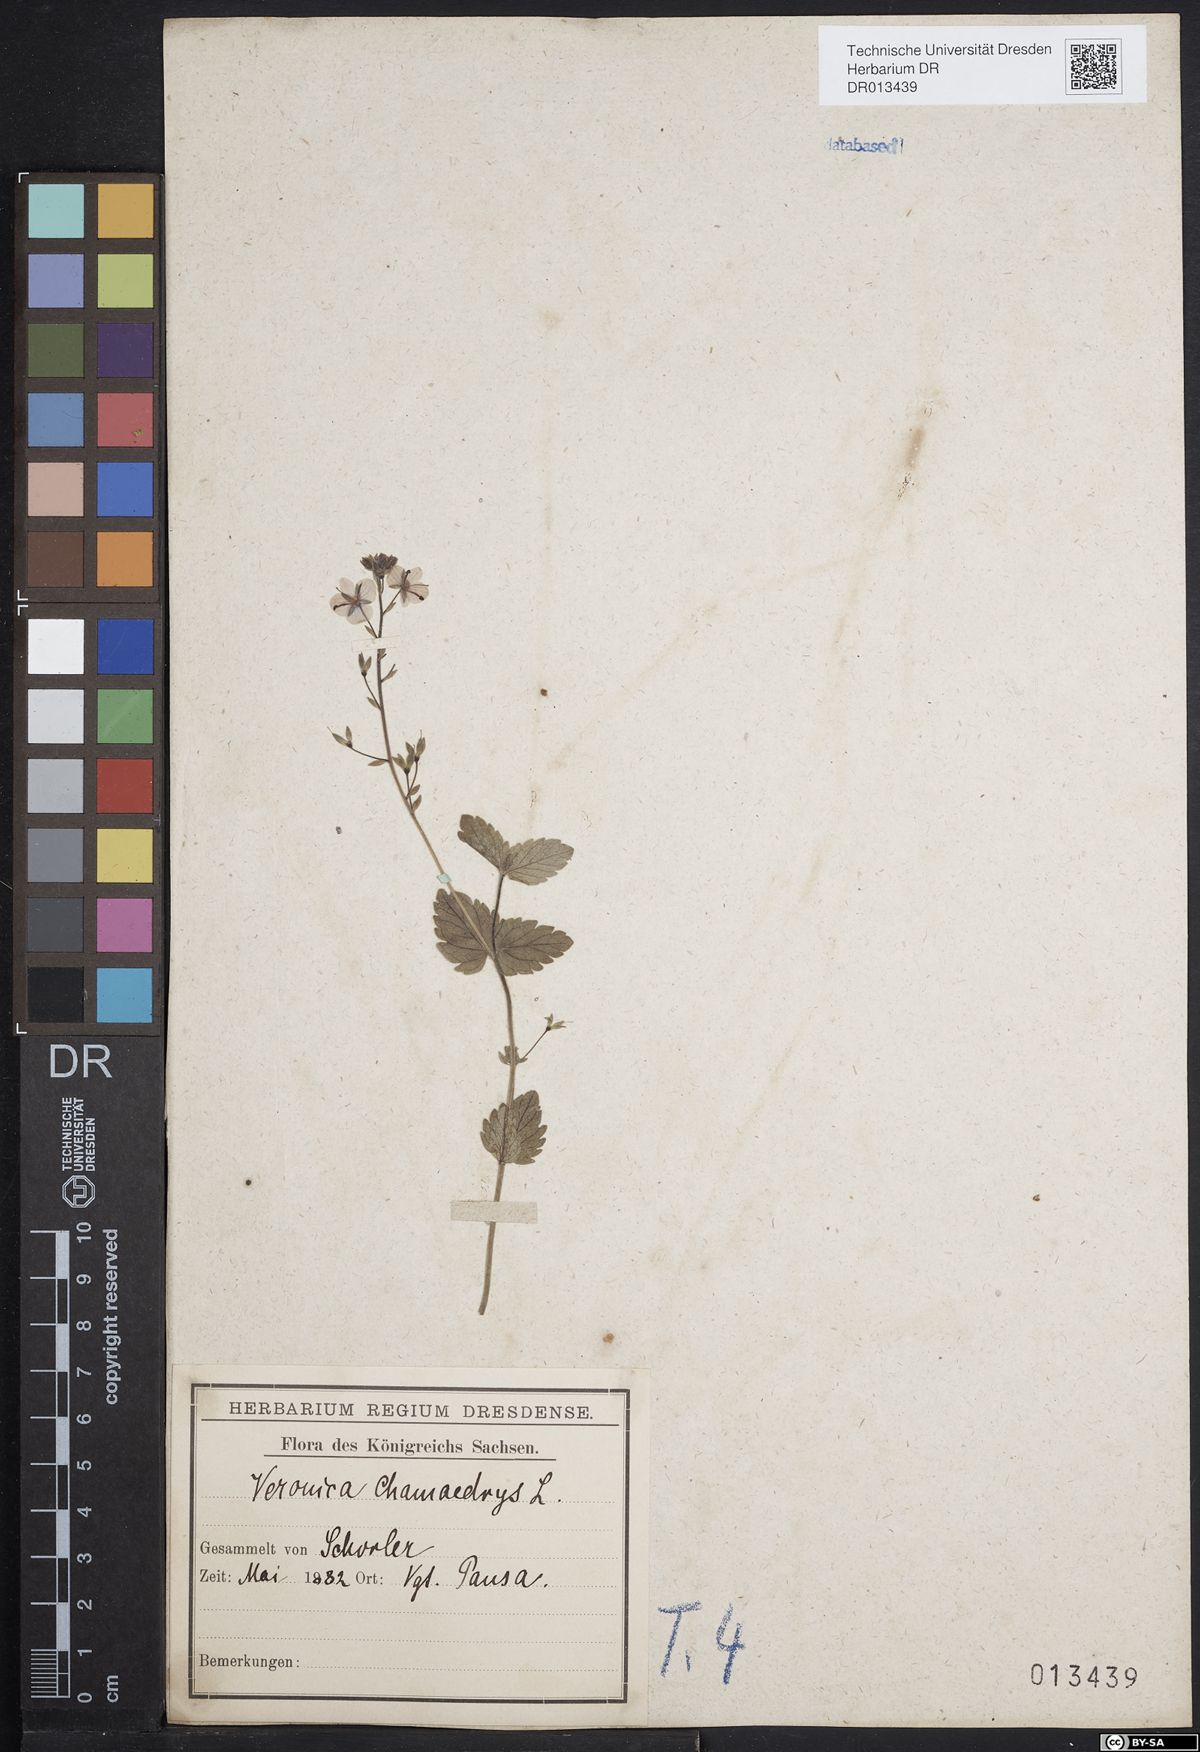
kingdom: Plantae
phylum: Tracheophyta
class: Magnoliopsida
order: Lamiales
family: Plantaginaceae
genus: Veronica
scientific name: Veronica chamaedrys
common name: Germander speedwell
